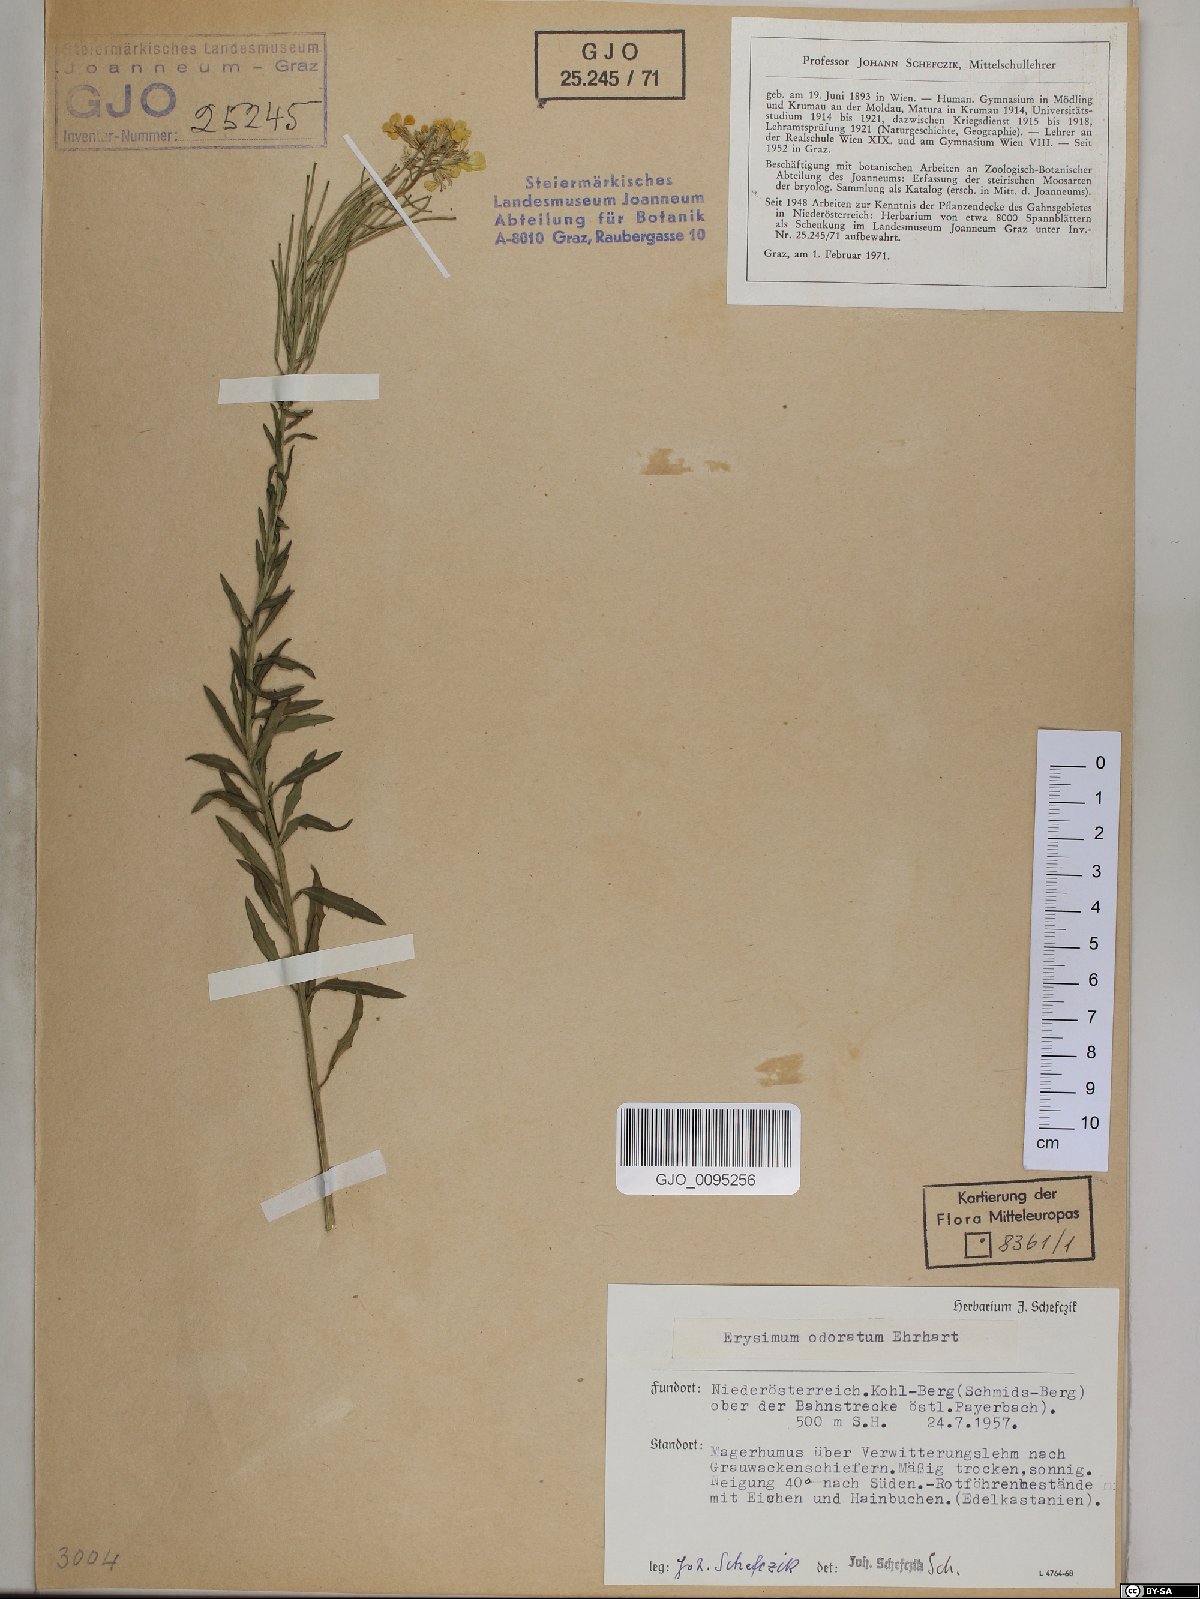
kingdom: Plantae
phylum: Tracheophyta
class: Magnoliopsida
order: Brassicales
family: Brassicaceae
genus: Erysimum
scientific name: Erysimum odoratum
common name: Smelly wallflower
